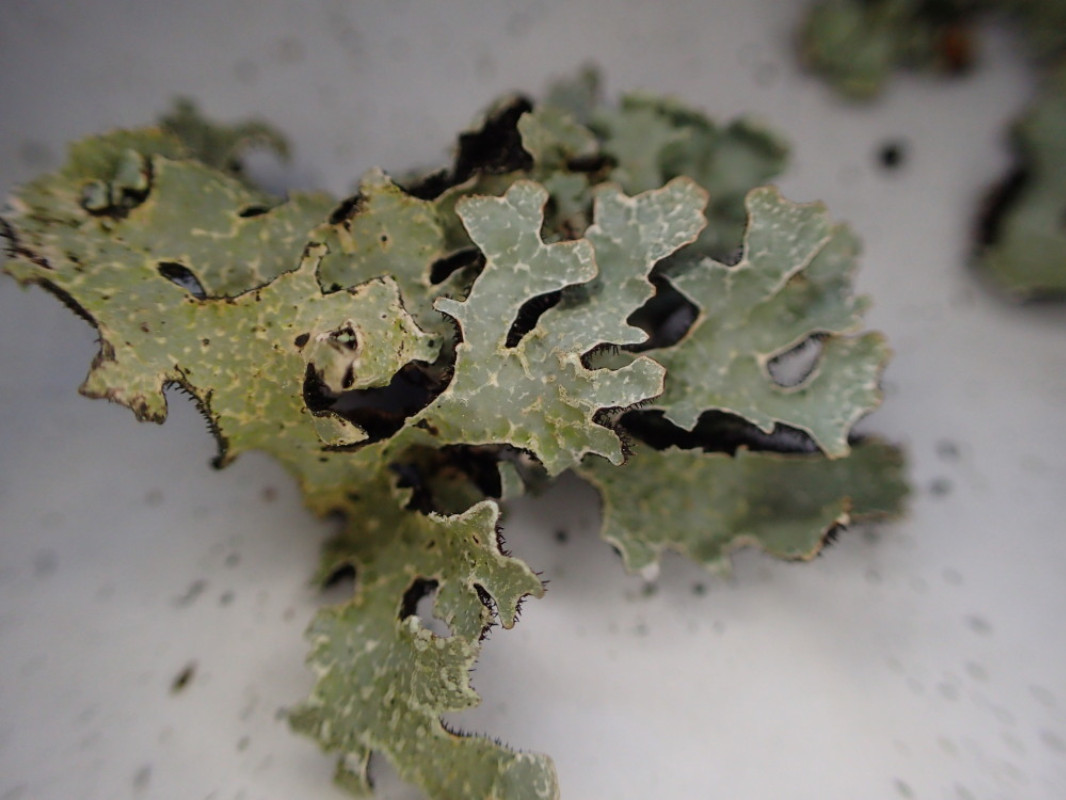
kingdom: Fungi
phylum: Ascomycota
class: Lecanoromycetes
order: Lecanorales
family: Parmeliaceae
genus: Parmelia
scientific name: Parmelia sulcata
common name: rynket skållav
